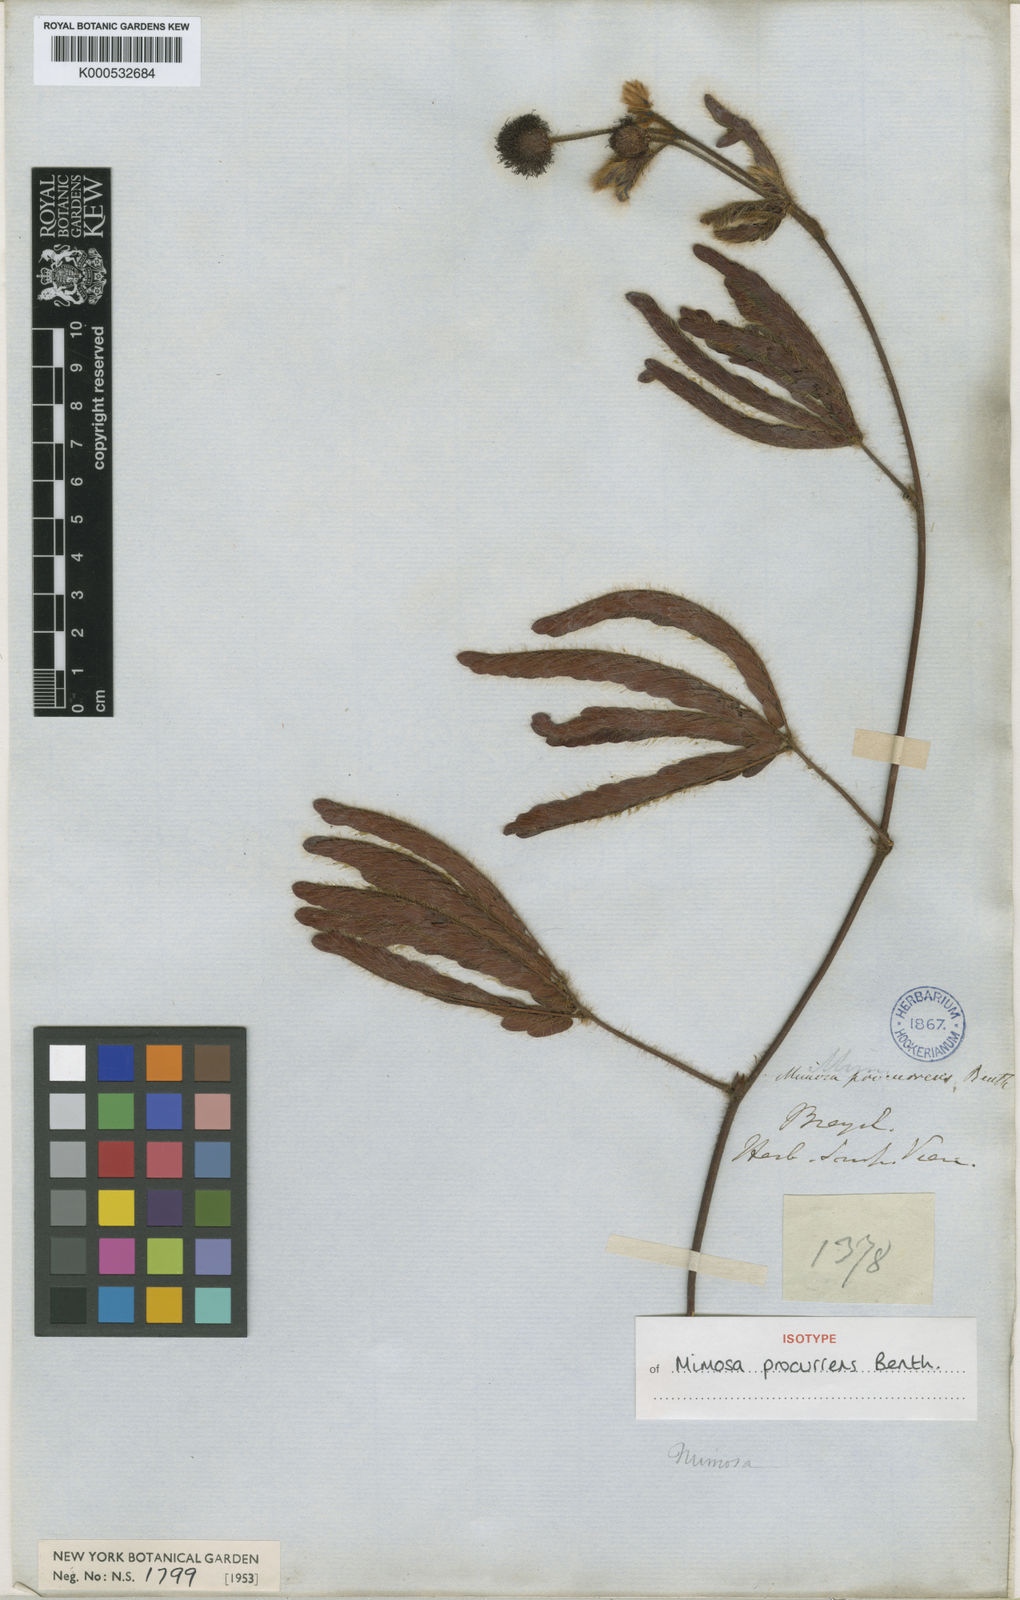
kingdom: Plantae
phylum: Tracheophyta
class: Magnoliopsida
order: Fabales
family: Fabaceae
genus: Mimosa
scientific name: Mimosa procurrens
